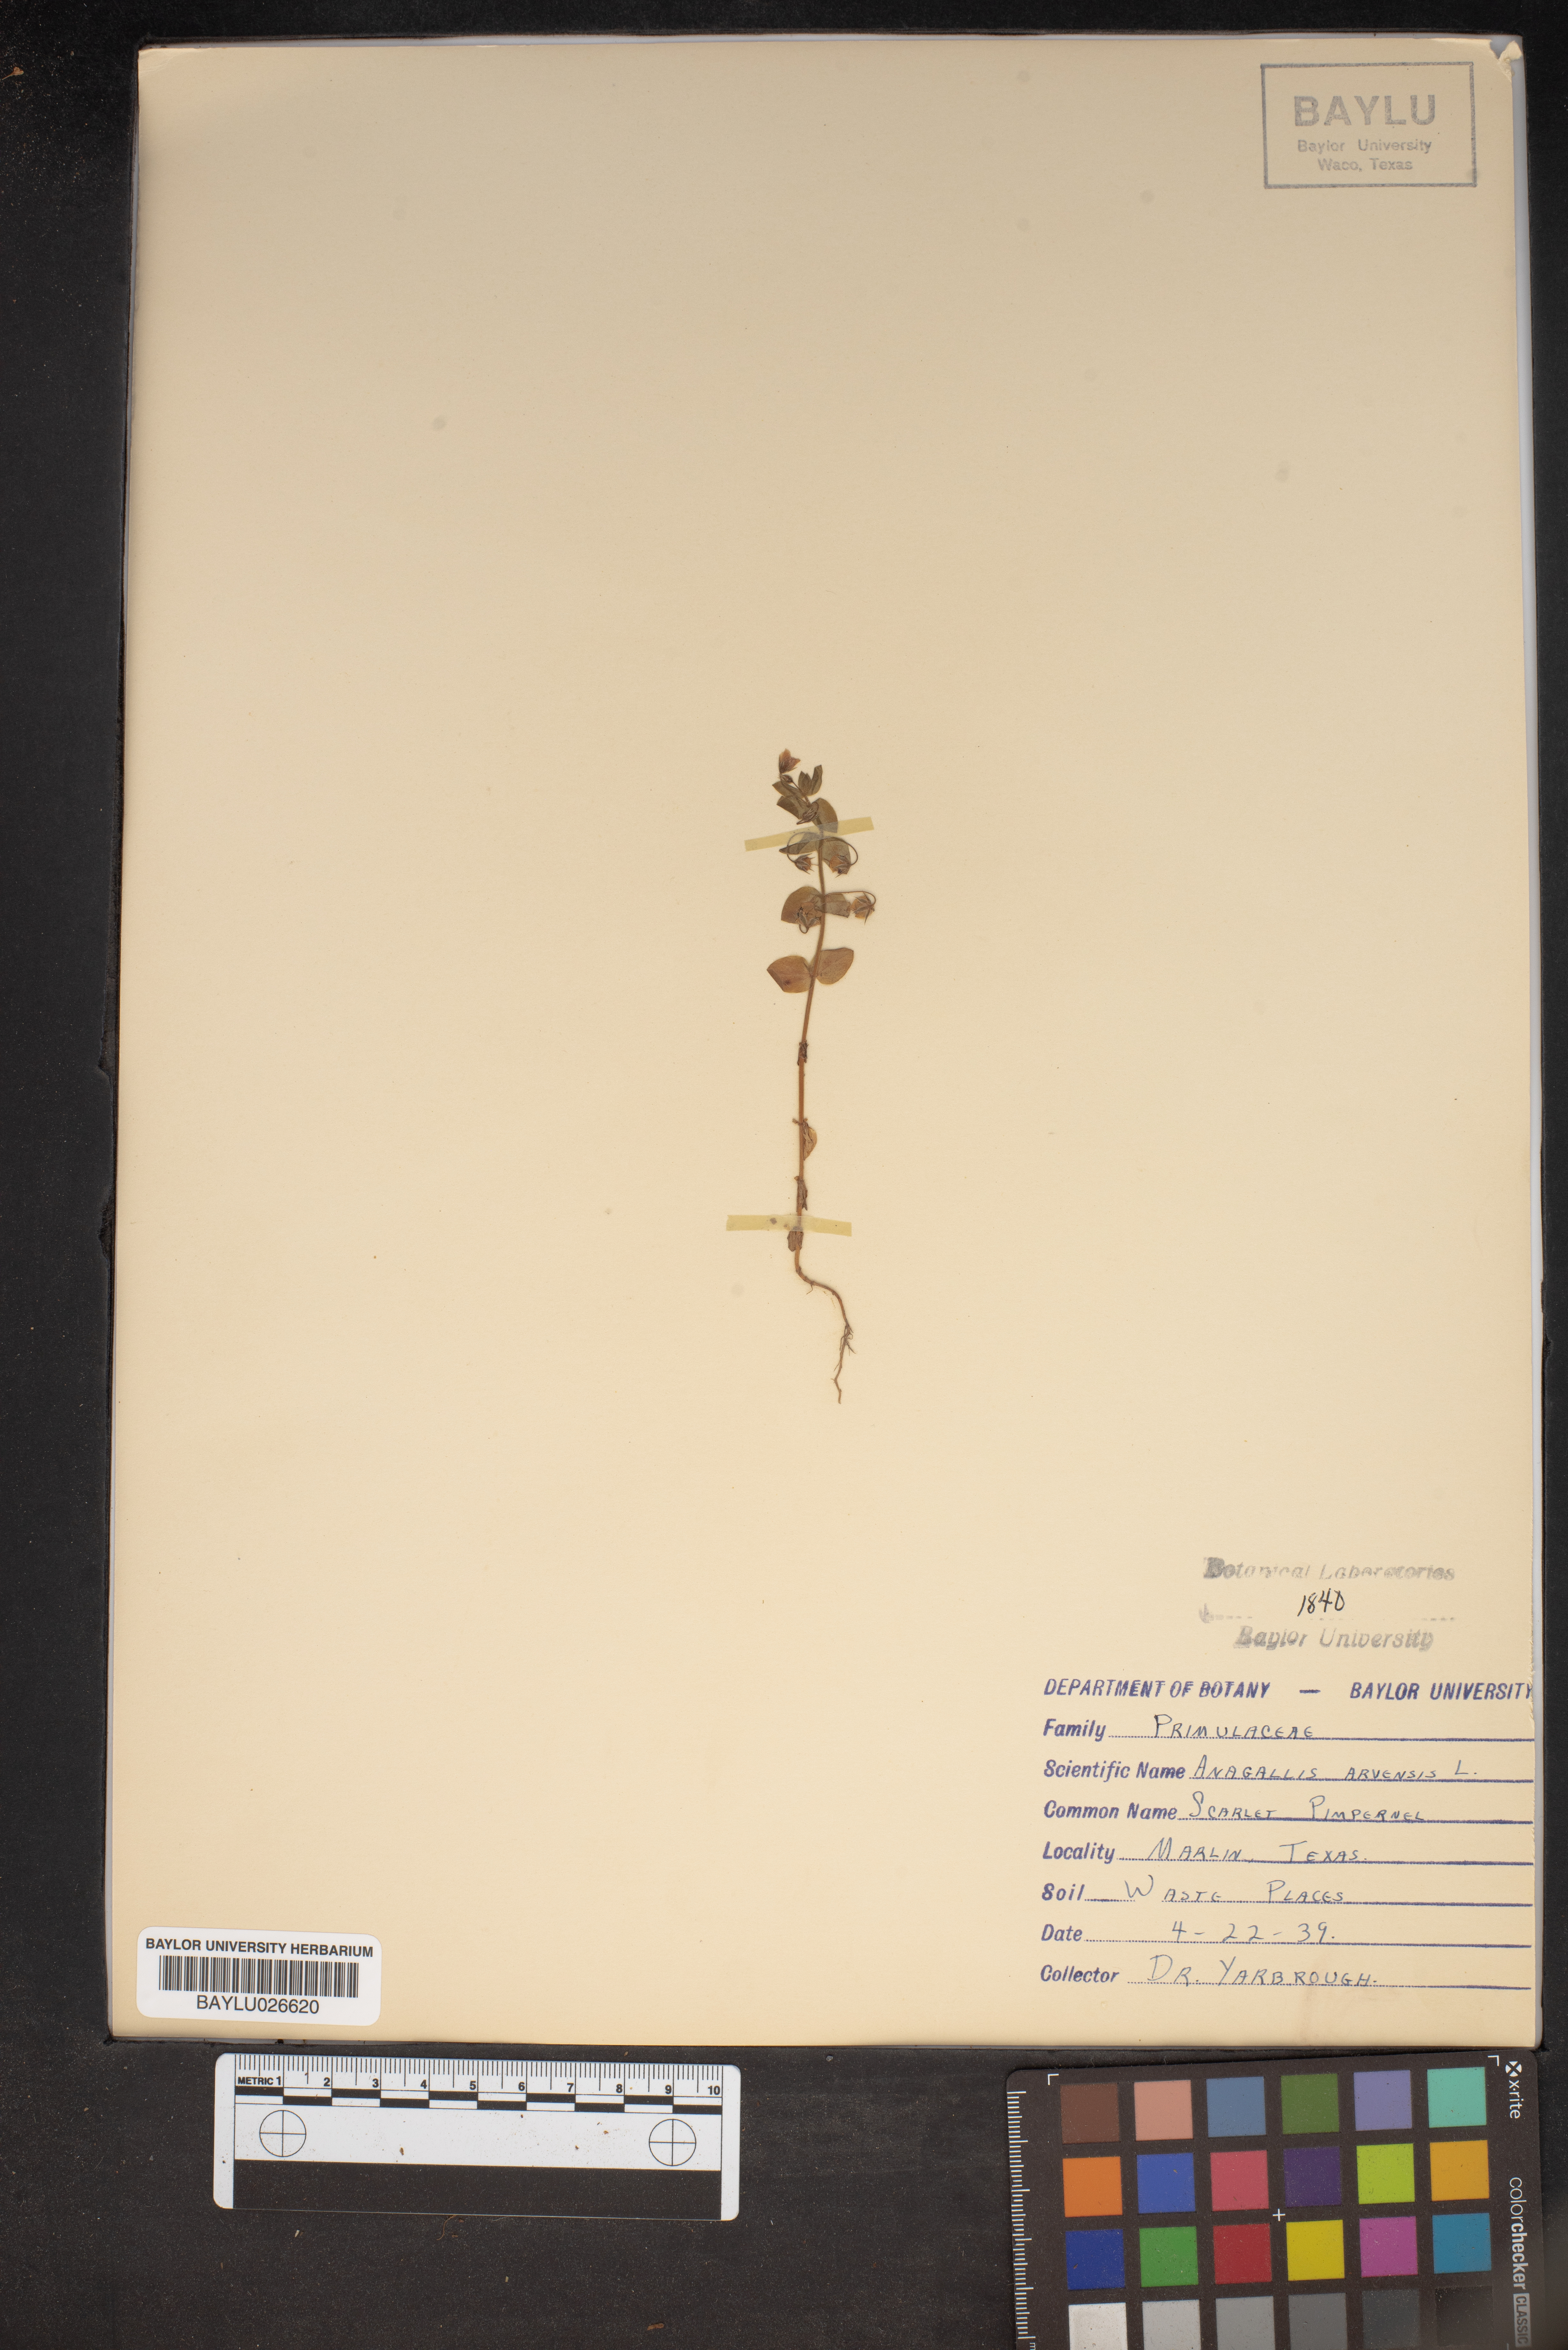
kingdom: Plantae
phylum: Tracheophyta
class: Magnoliopsida
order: Ericales
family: Primulaceae
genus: Lysimachia
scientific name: Lysimachia arvensis
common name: Scarlet pimpernel
